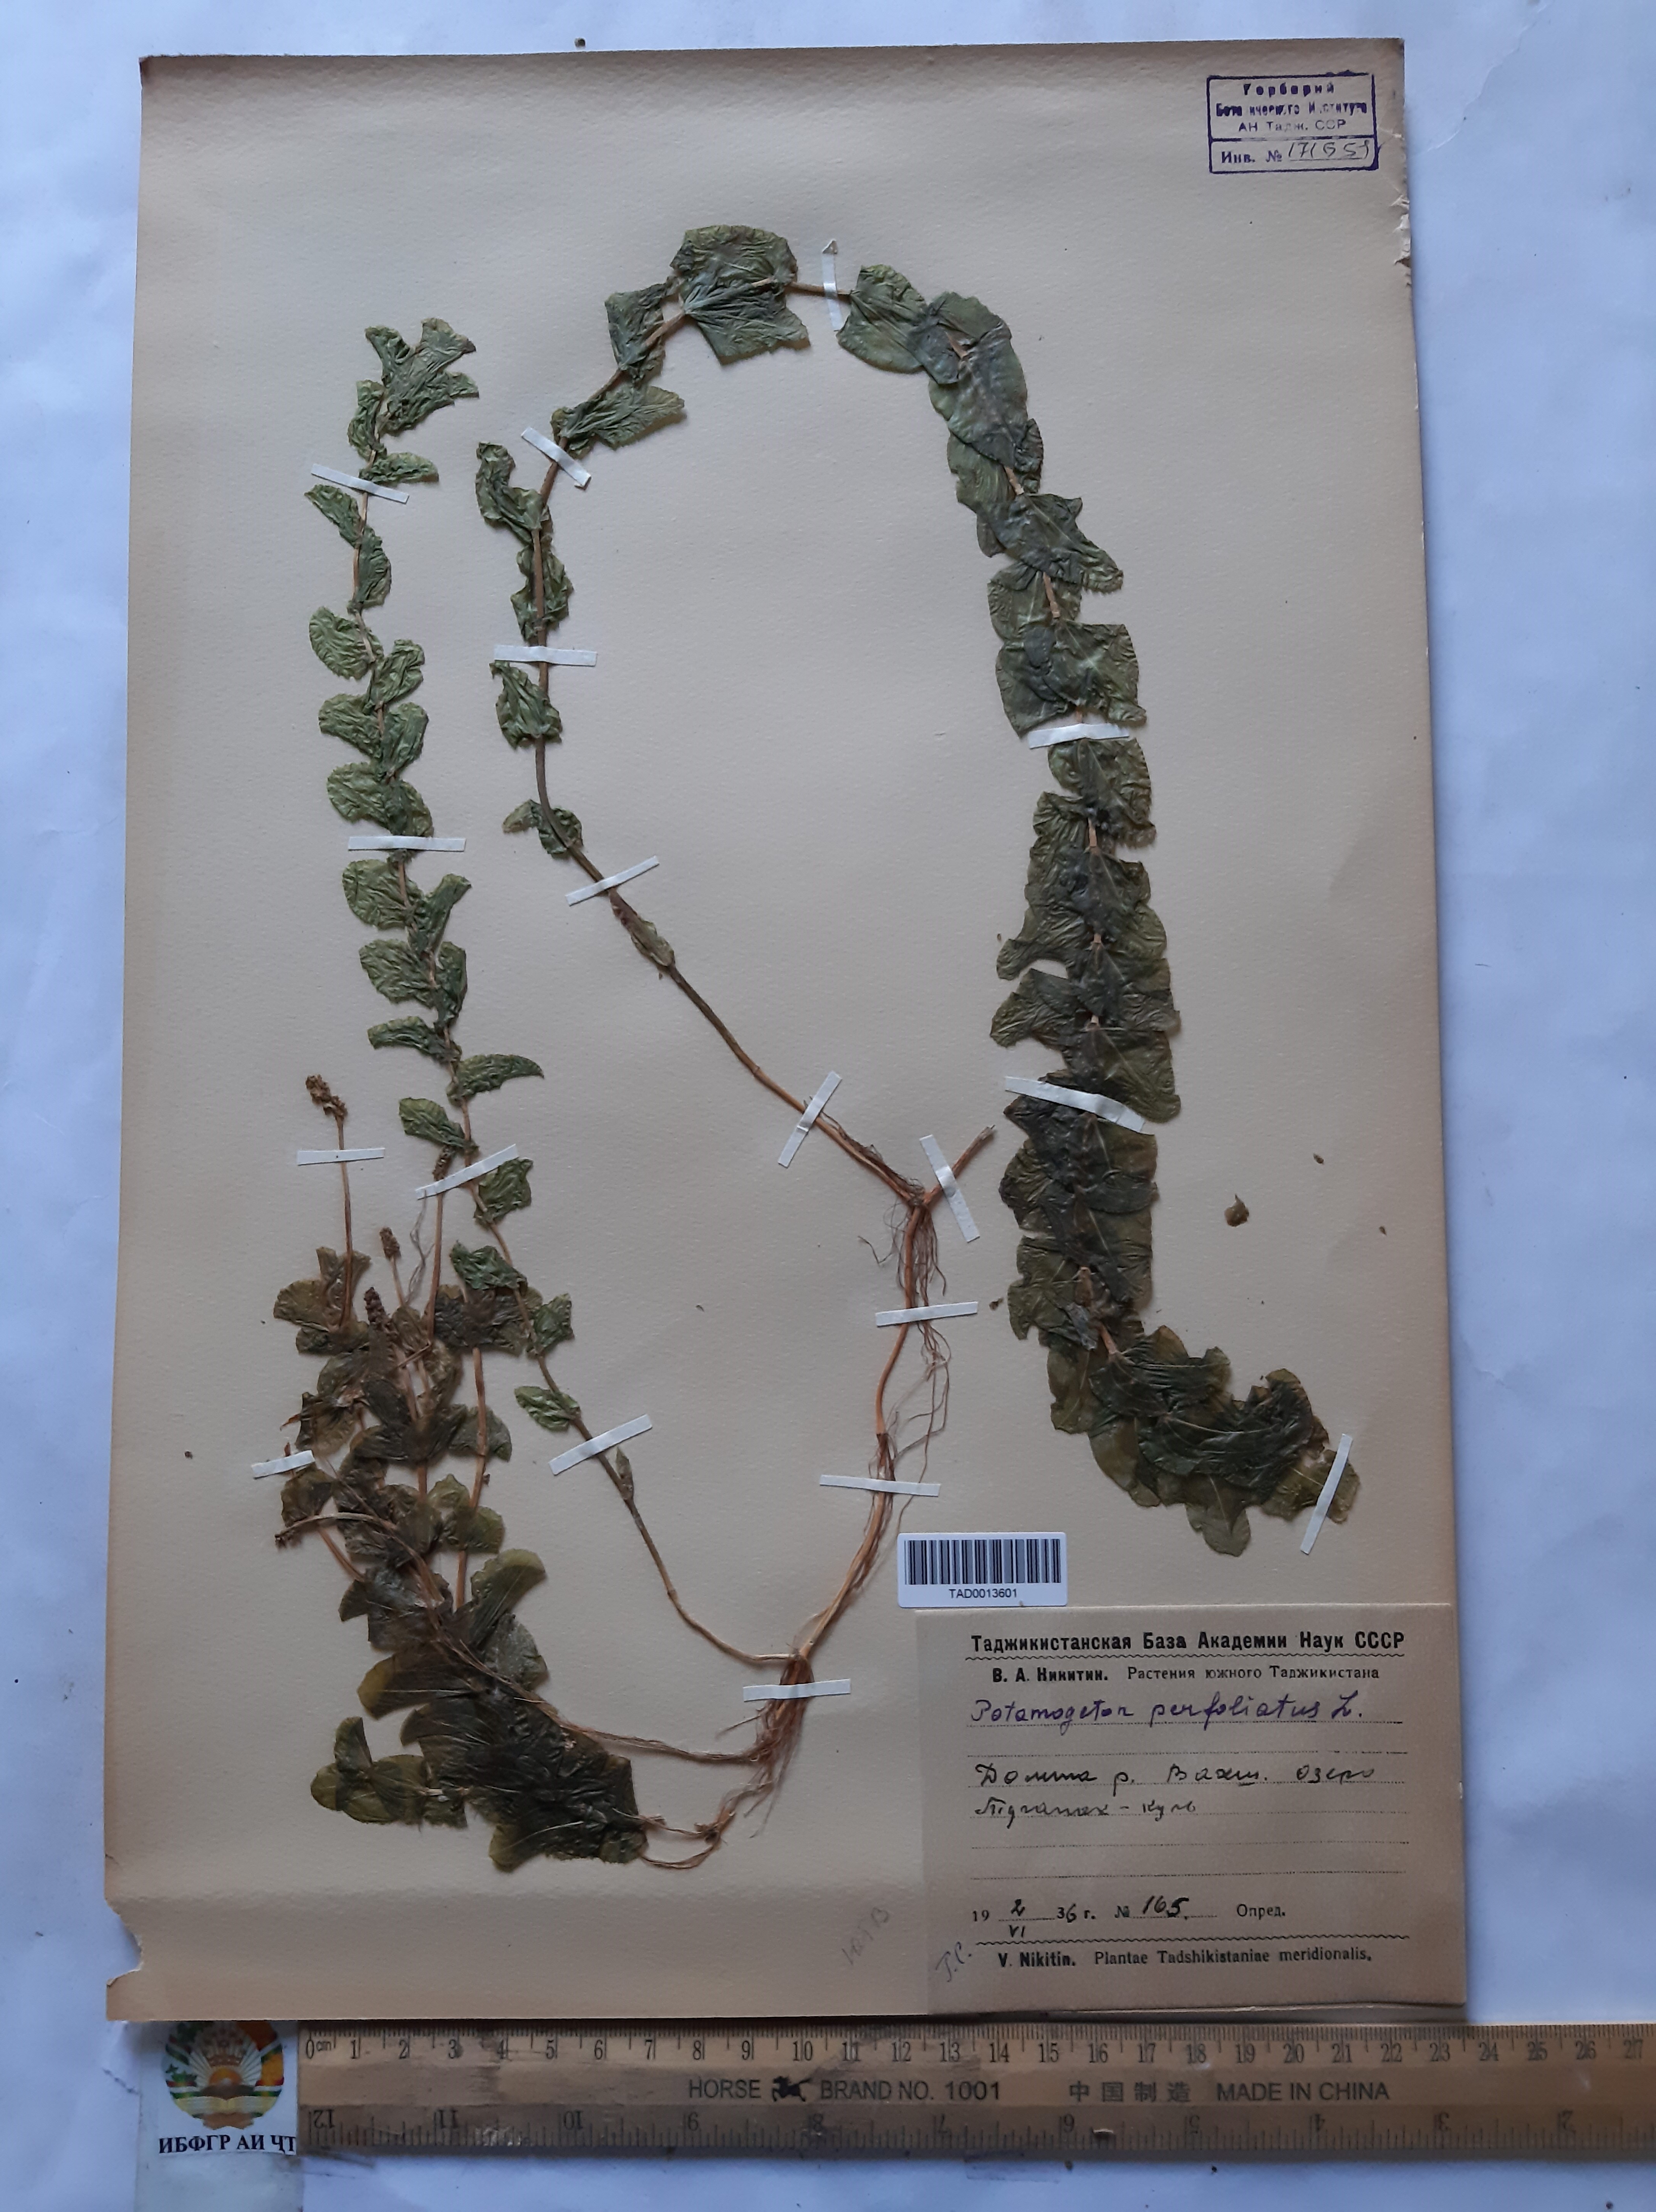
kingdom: Plantae
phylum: Tracheophyta
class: Liliopsida
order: Alismatales
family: Potamogetonaceae
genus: Potamogeton
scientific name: Potamogeton perfoliatus
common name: Perfoliate pondweed
